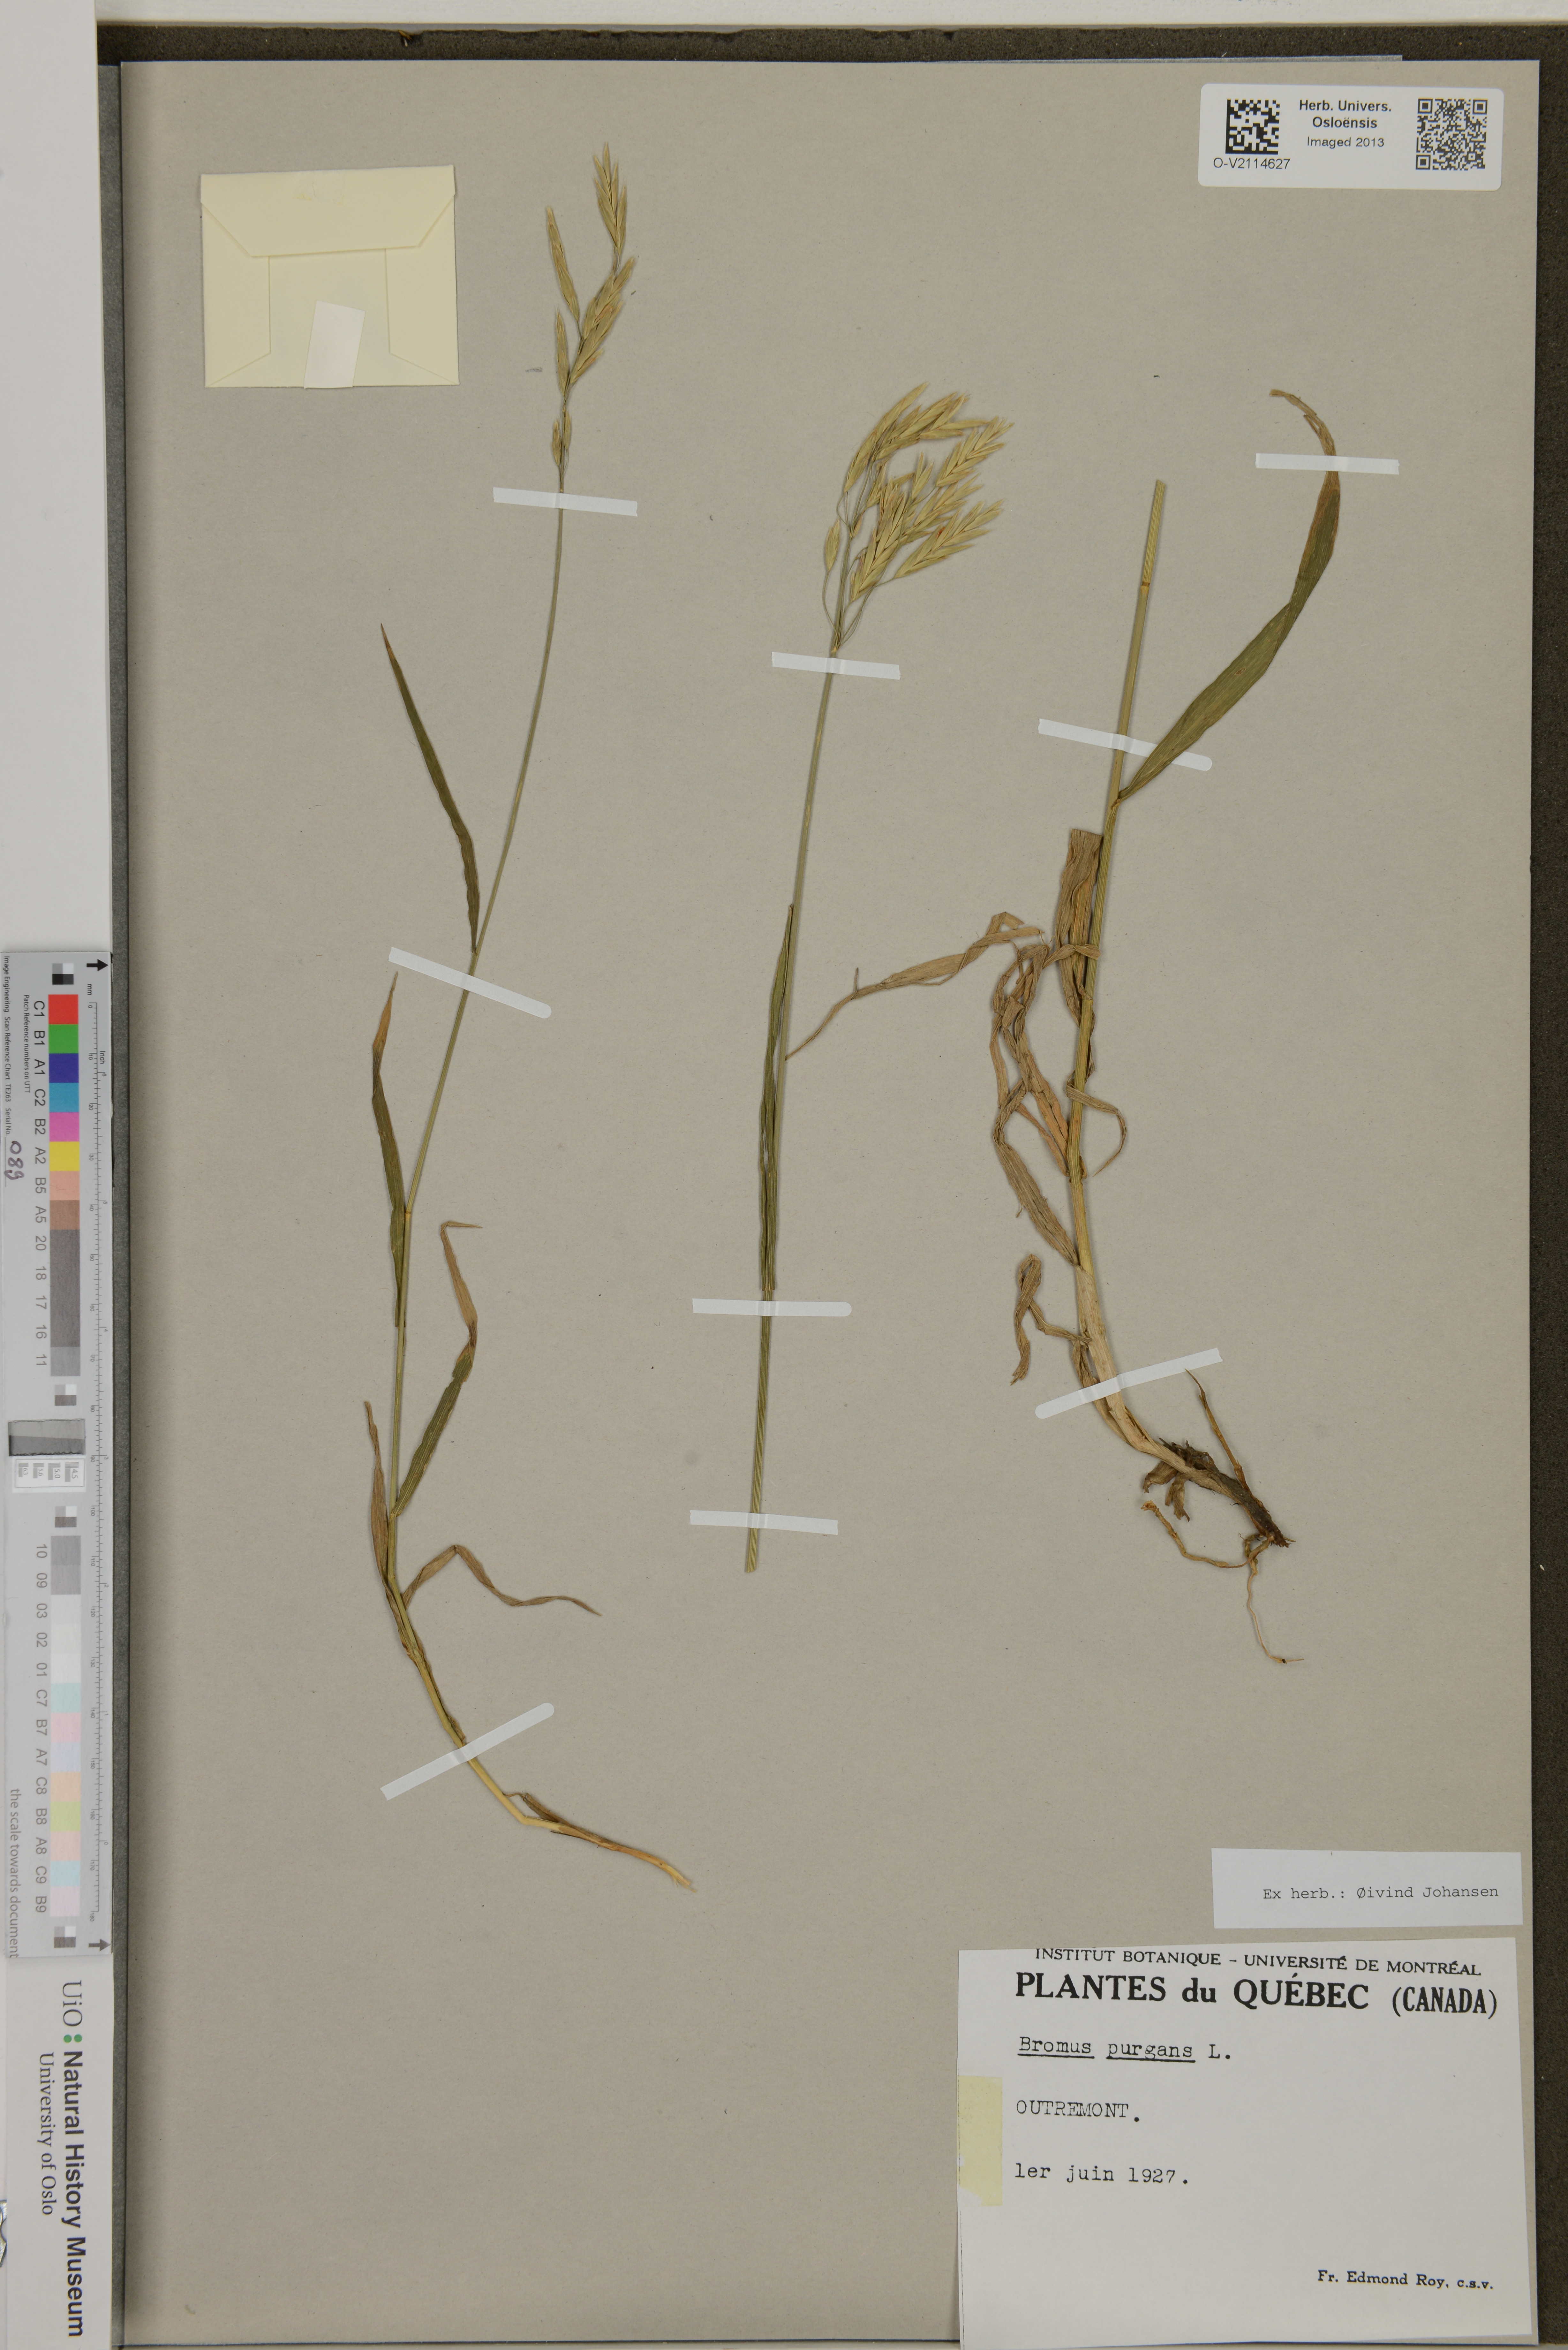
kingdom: Plantae
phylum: Tracheophyta
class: Liliopsida
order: Poales
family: Poaceae
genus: Bromus
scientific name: Bromus pubescens
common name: Hairy wood brome grass
